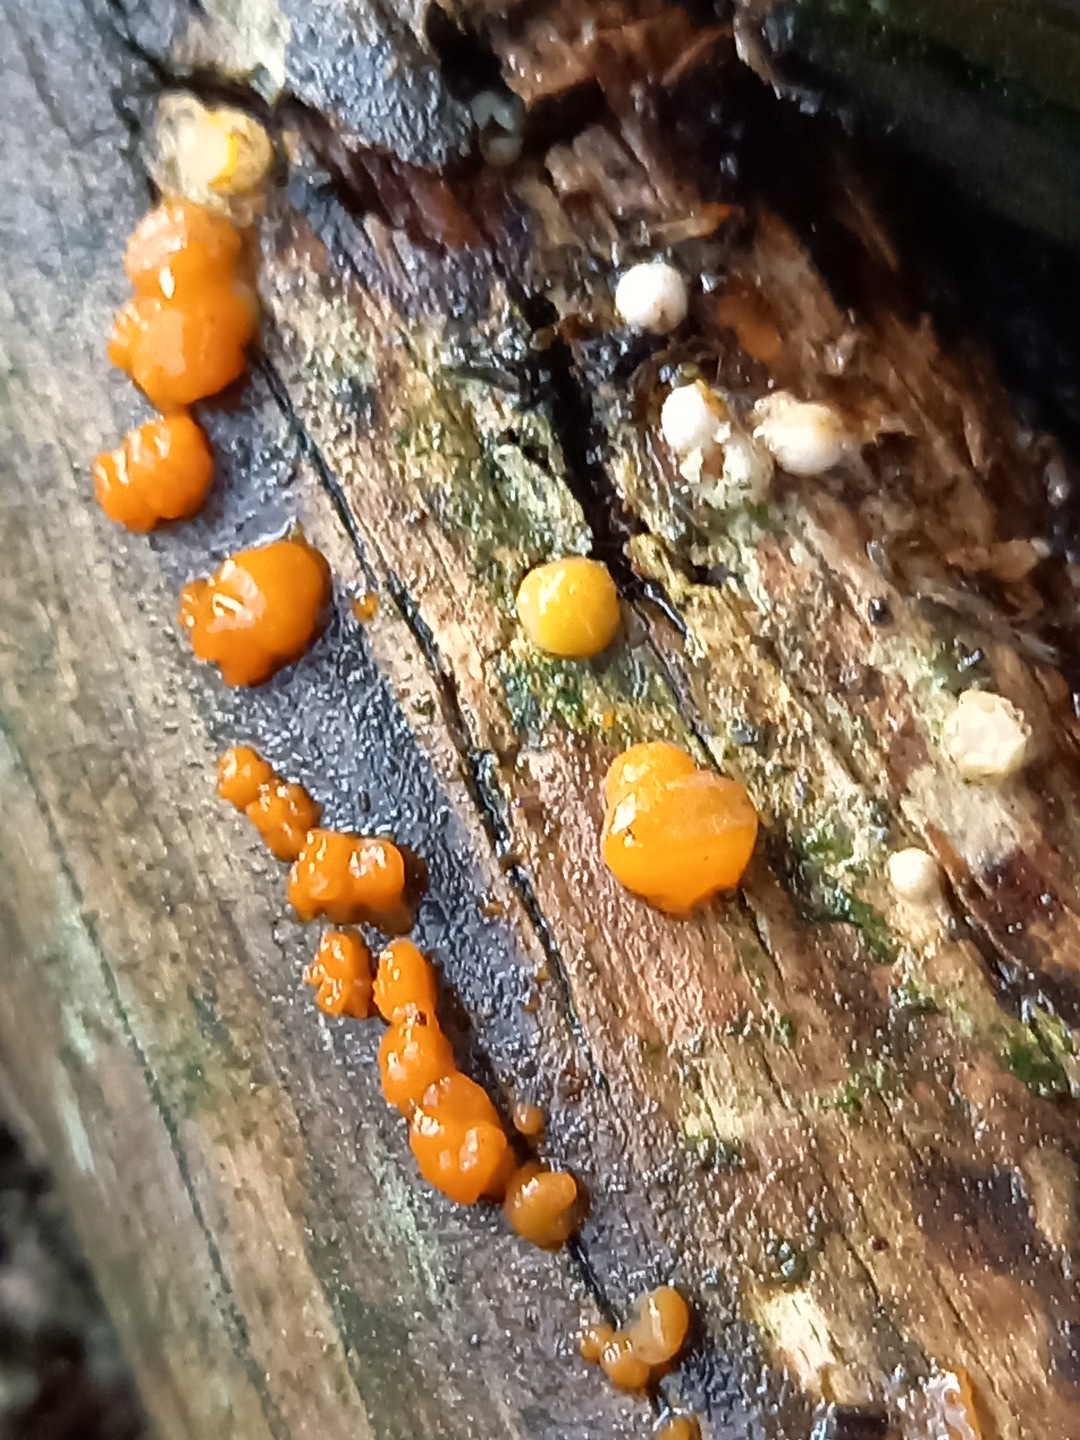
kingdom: Fungi
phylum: Basidiomycota
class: Dacrymycetes
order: Dacrymycetales
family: Dacrymycetaceae
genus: Dacrymyces
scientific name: Dacrymyces stillatus
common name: almindelig tåresvamp
